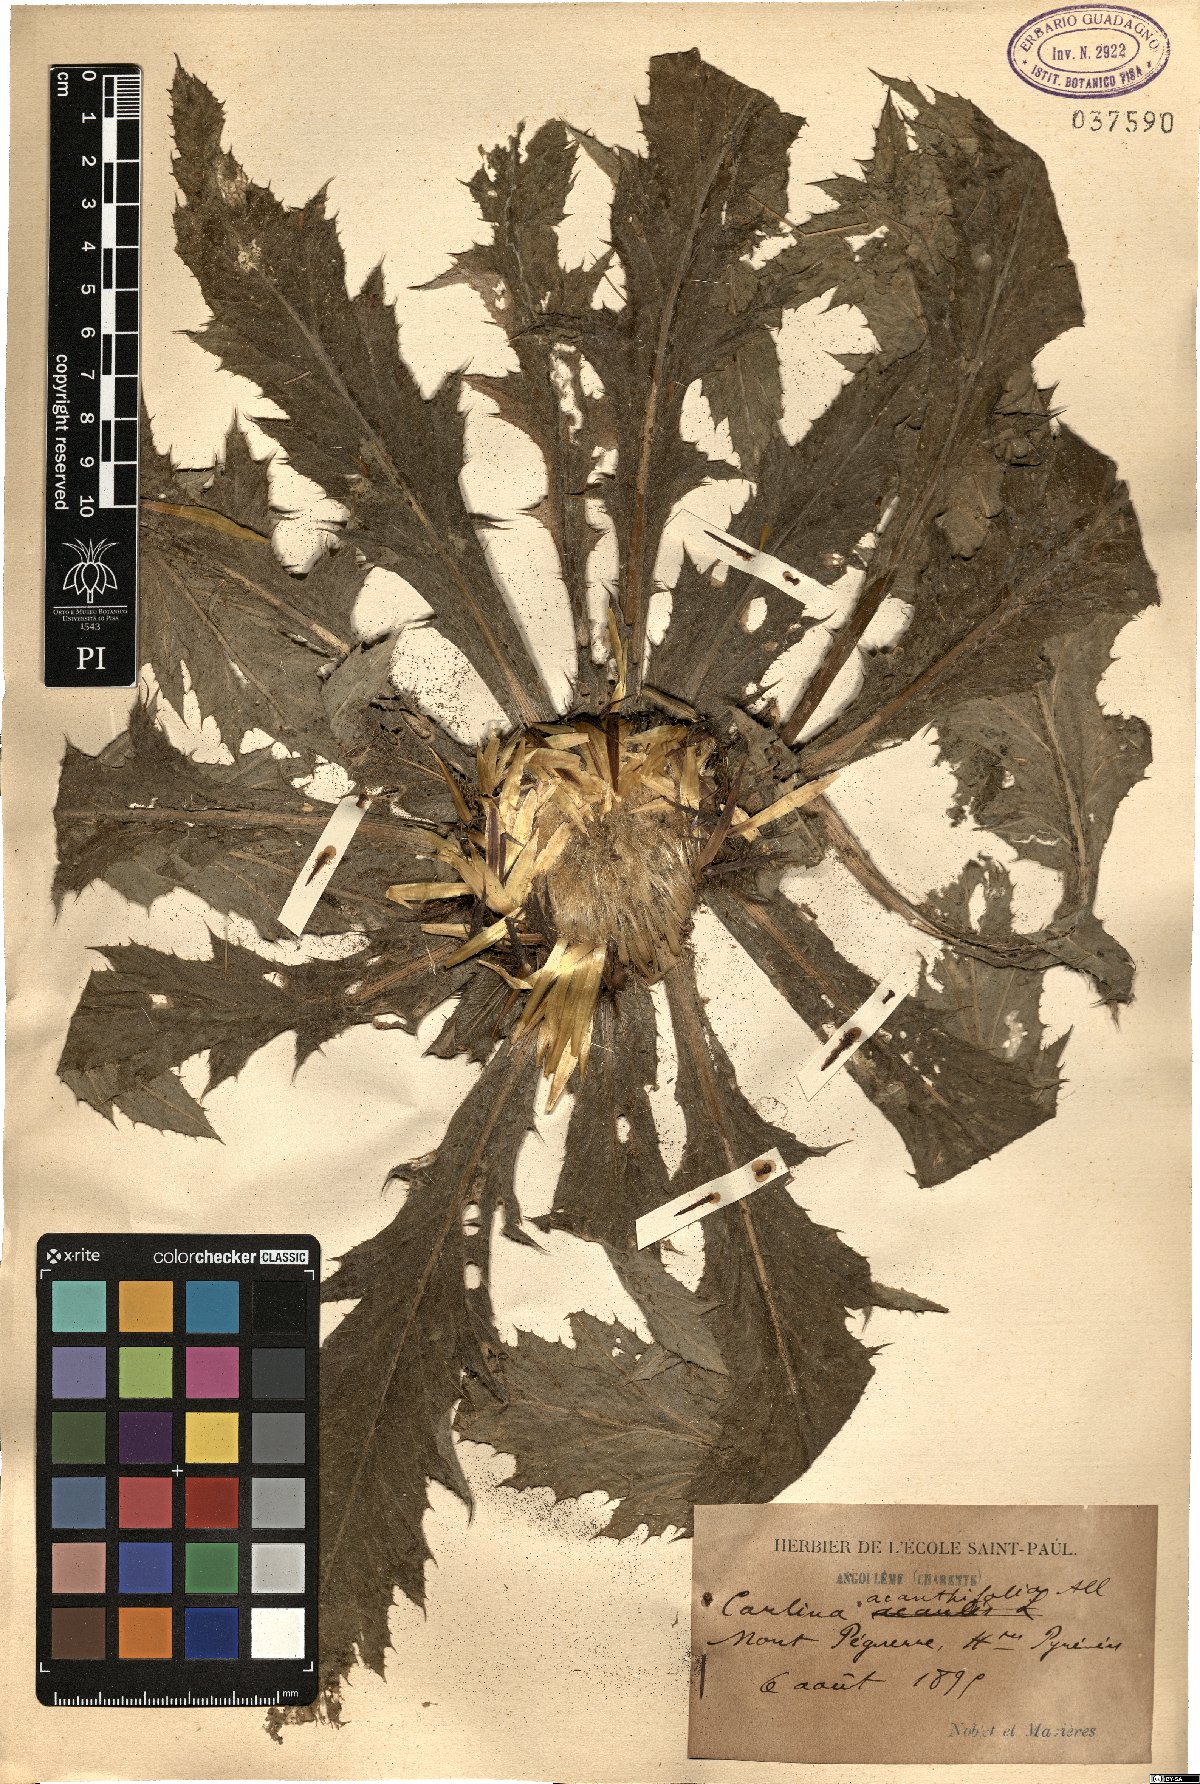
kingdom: Plantae
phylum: Tracheophyta
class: Magnoliopsida
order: Asterales
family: Asteraceae
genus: Carlina
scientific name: Carlina acanthifolia
